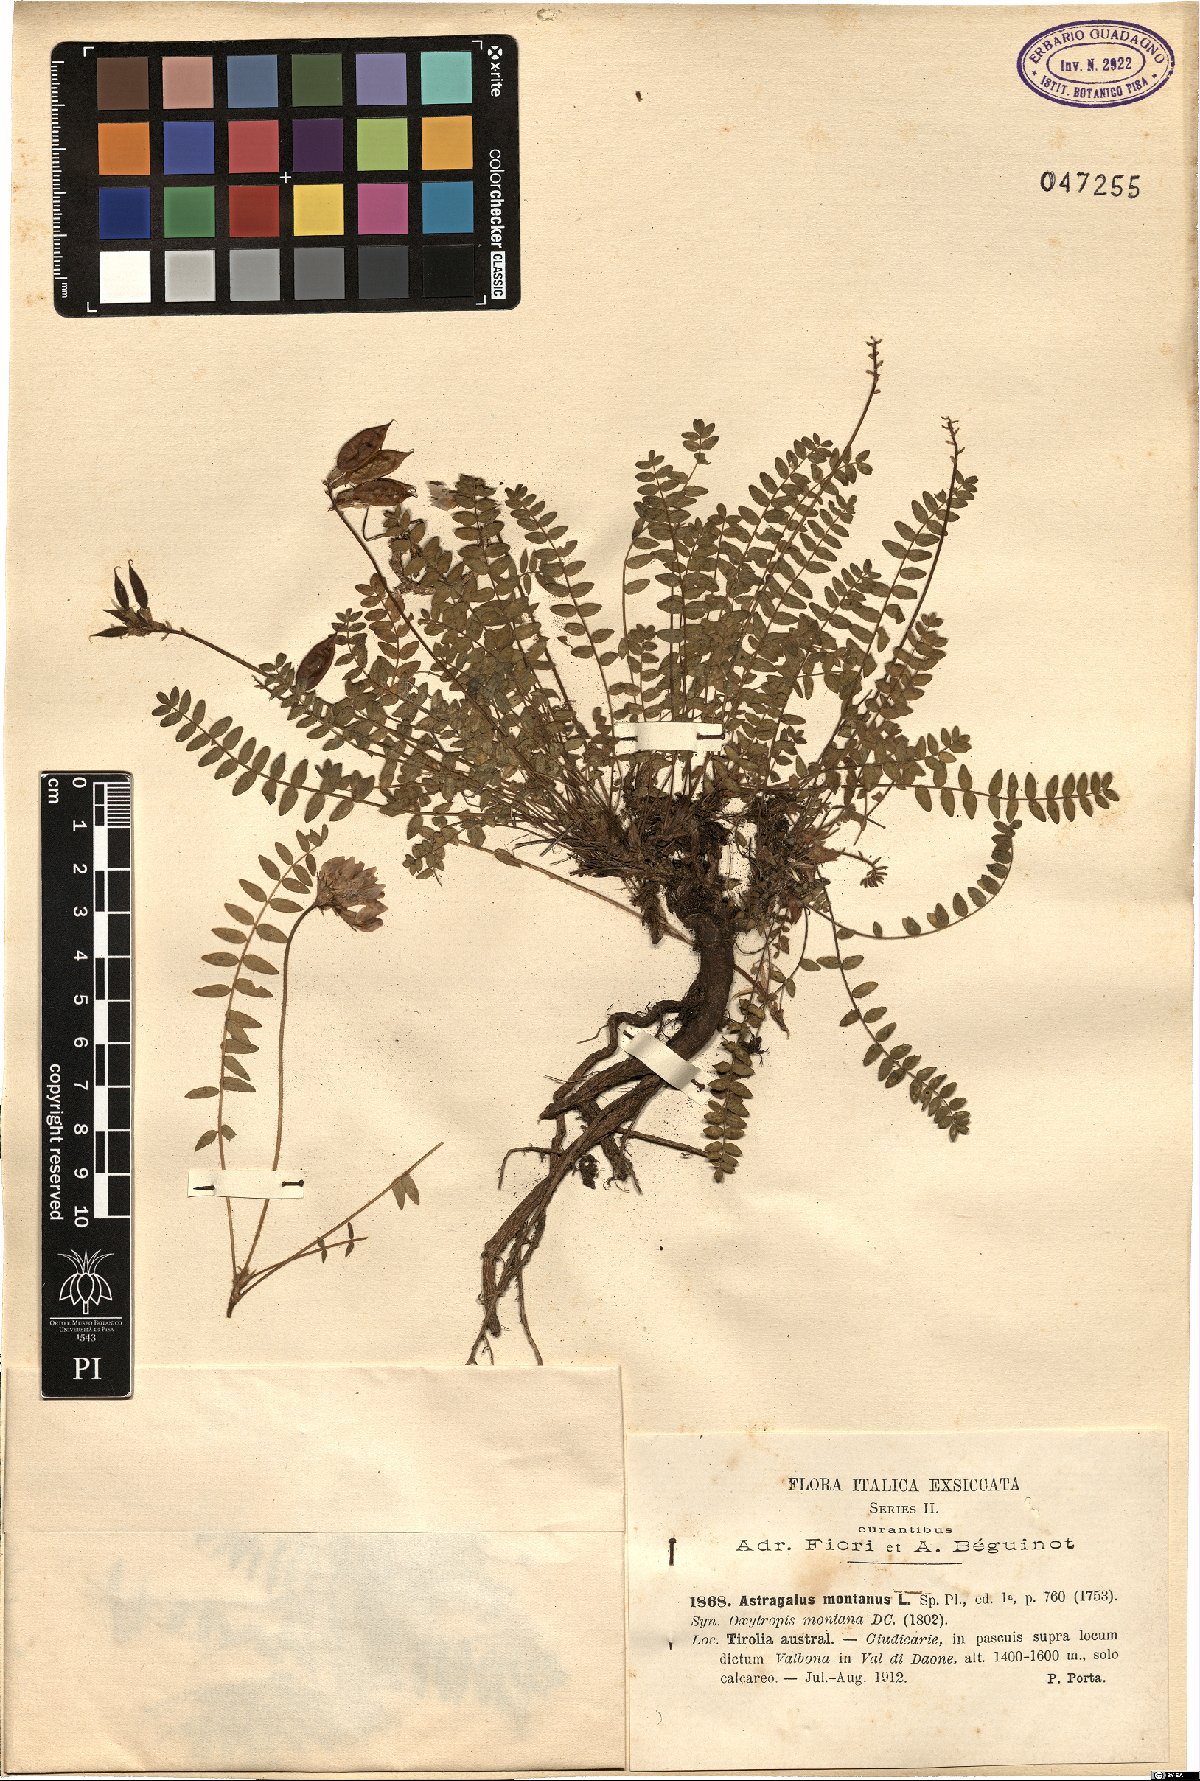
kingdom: Plantae
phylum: Tracheophyta
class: Magnoliopsida
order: Fabales
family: Fabaceae
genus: Oxytropis
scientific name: Oxytropis montana
